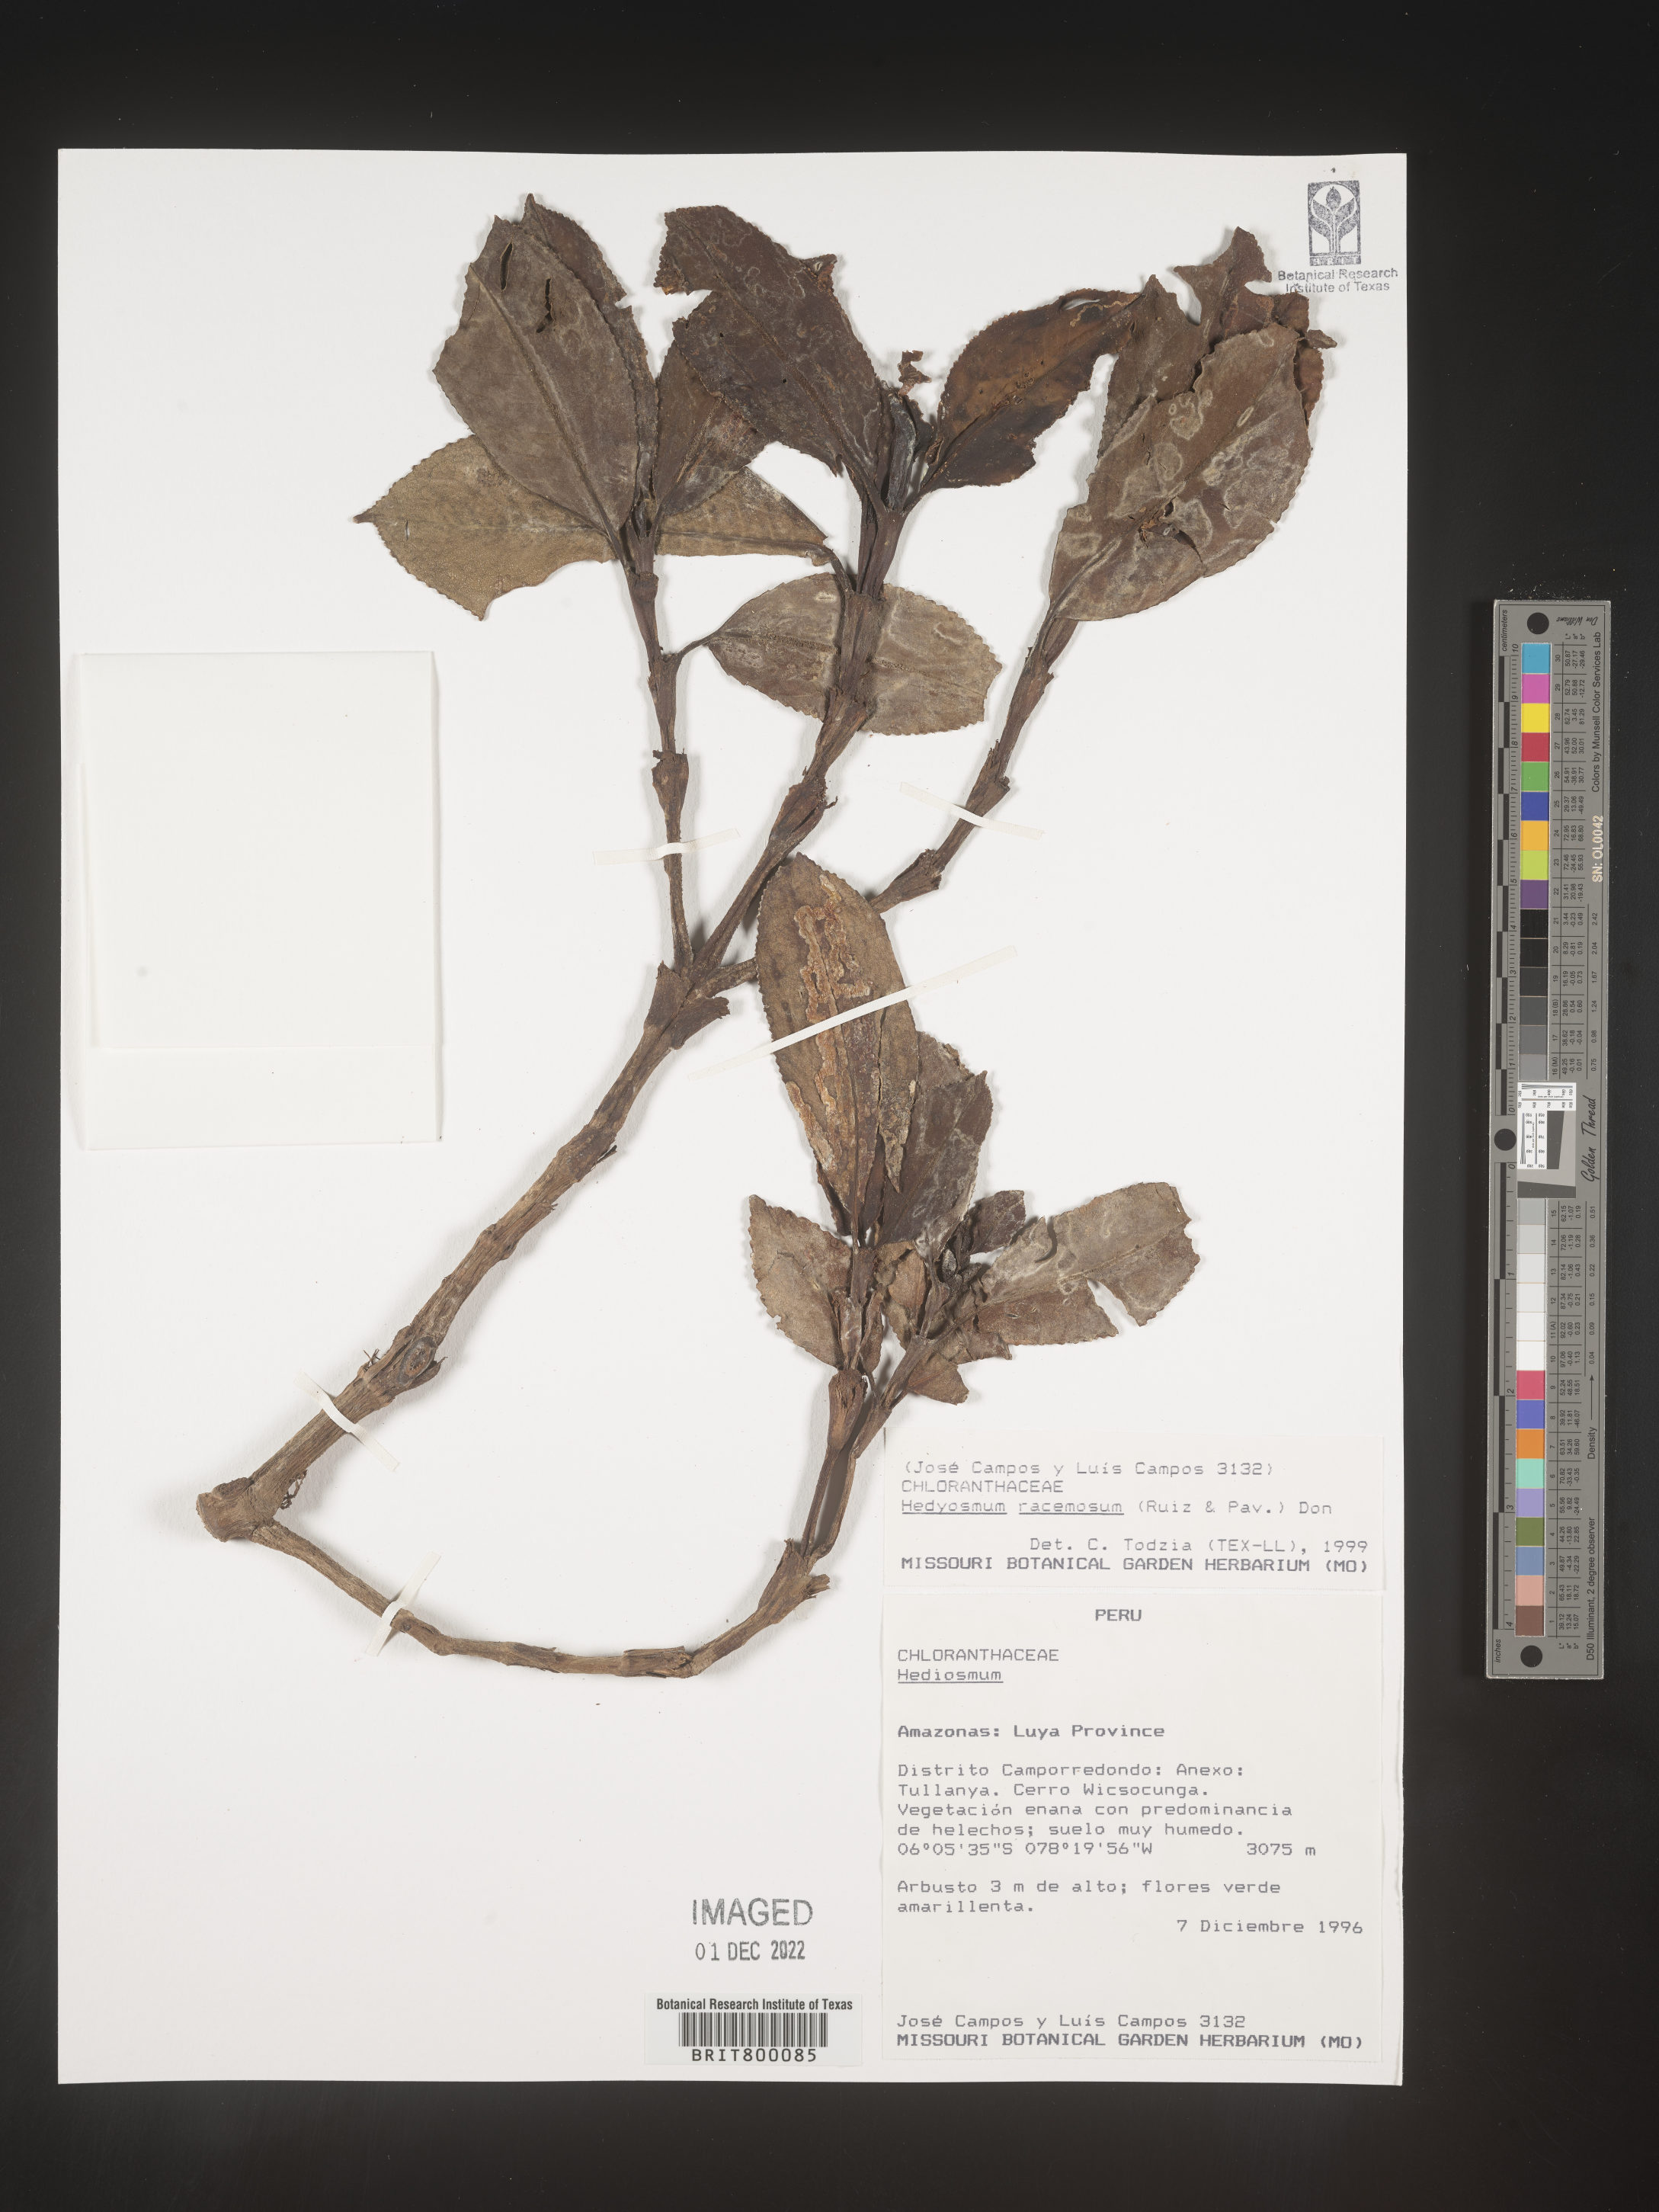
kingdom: Plantae
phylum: Tracheophyta
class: Magnoliopsida
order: Chloranthales
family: Chloranthaceae
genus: Hedyosmum
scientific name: Hedyosmum
